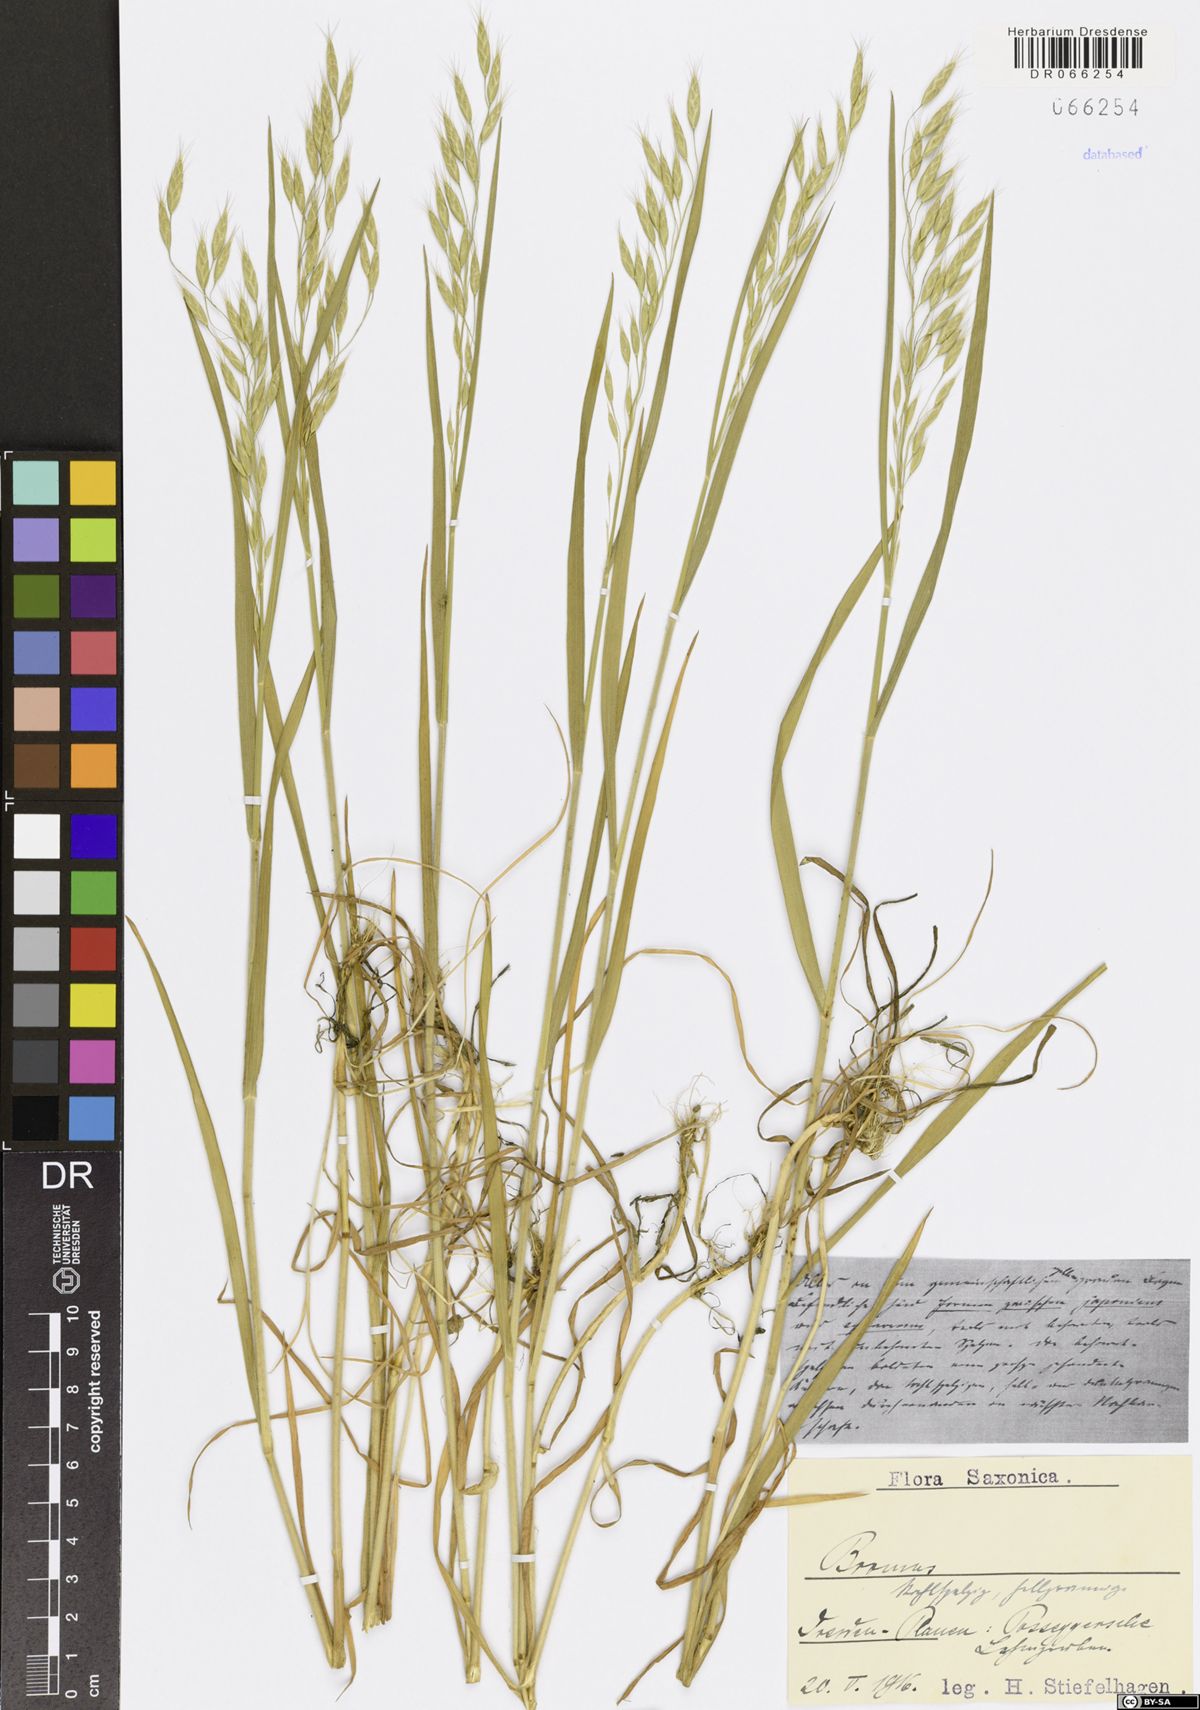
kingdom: Plantae
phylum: Tracheophyta
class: Liliopsida
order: Poales
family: Poaceae
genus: Bromus
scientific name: Bromus
